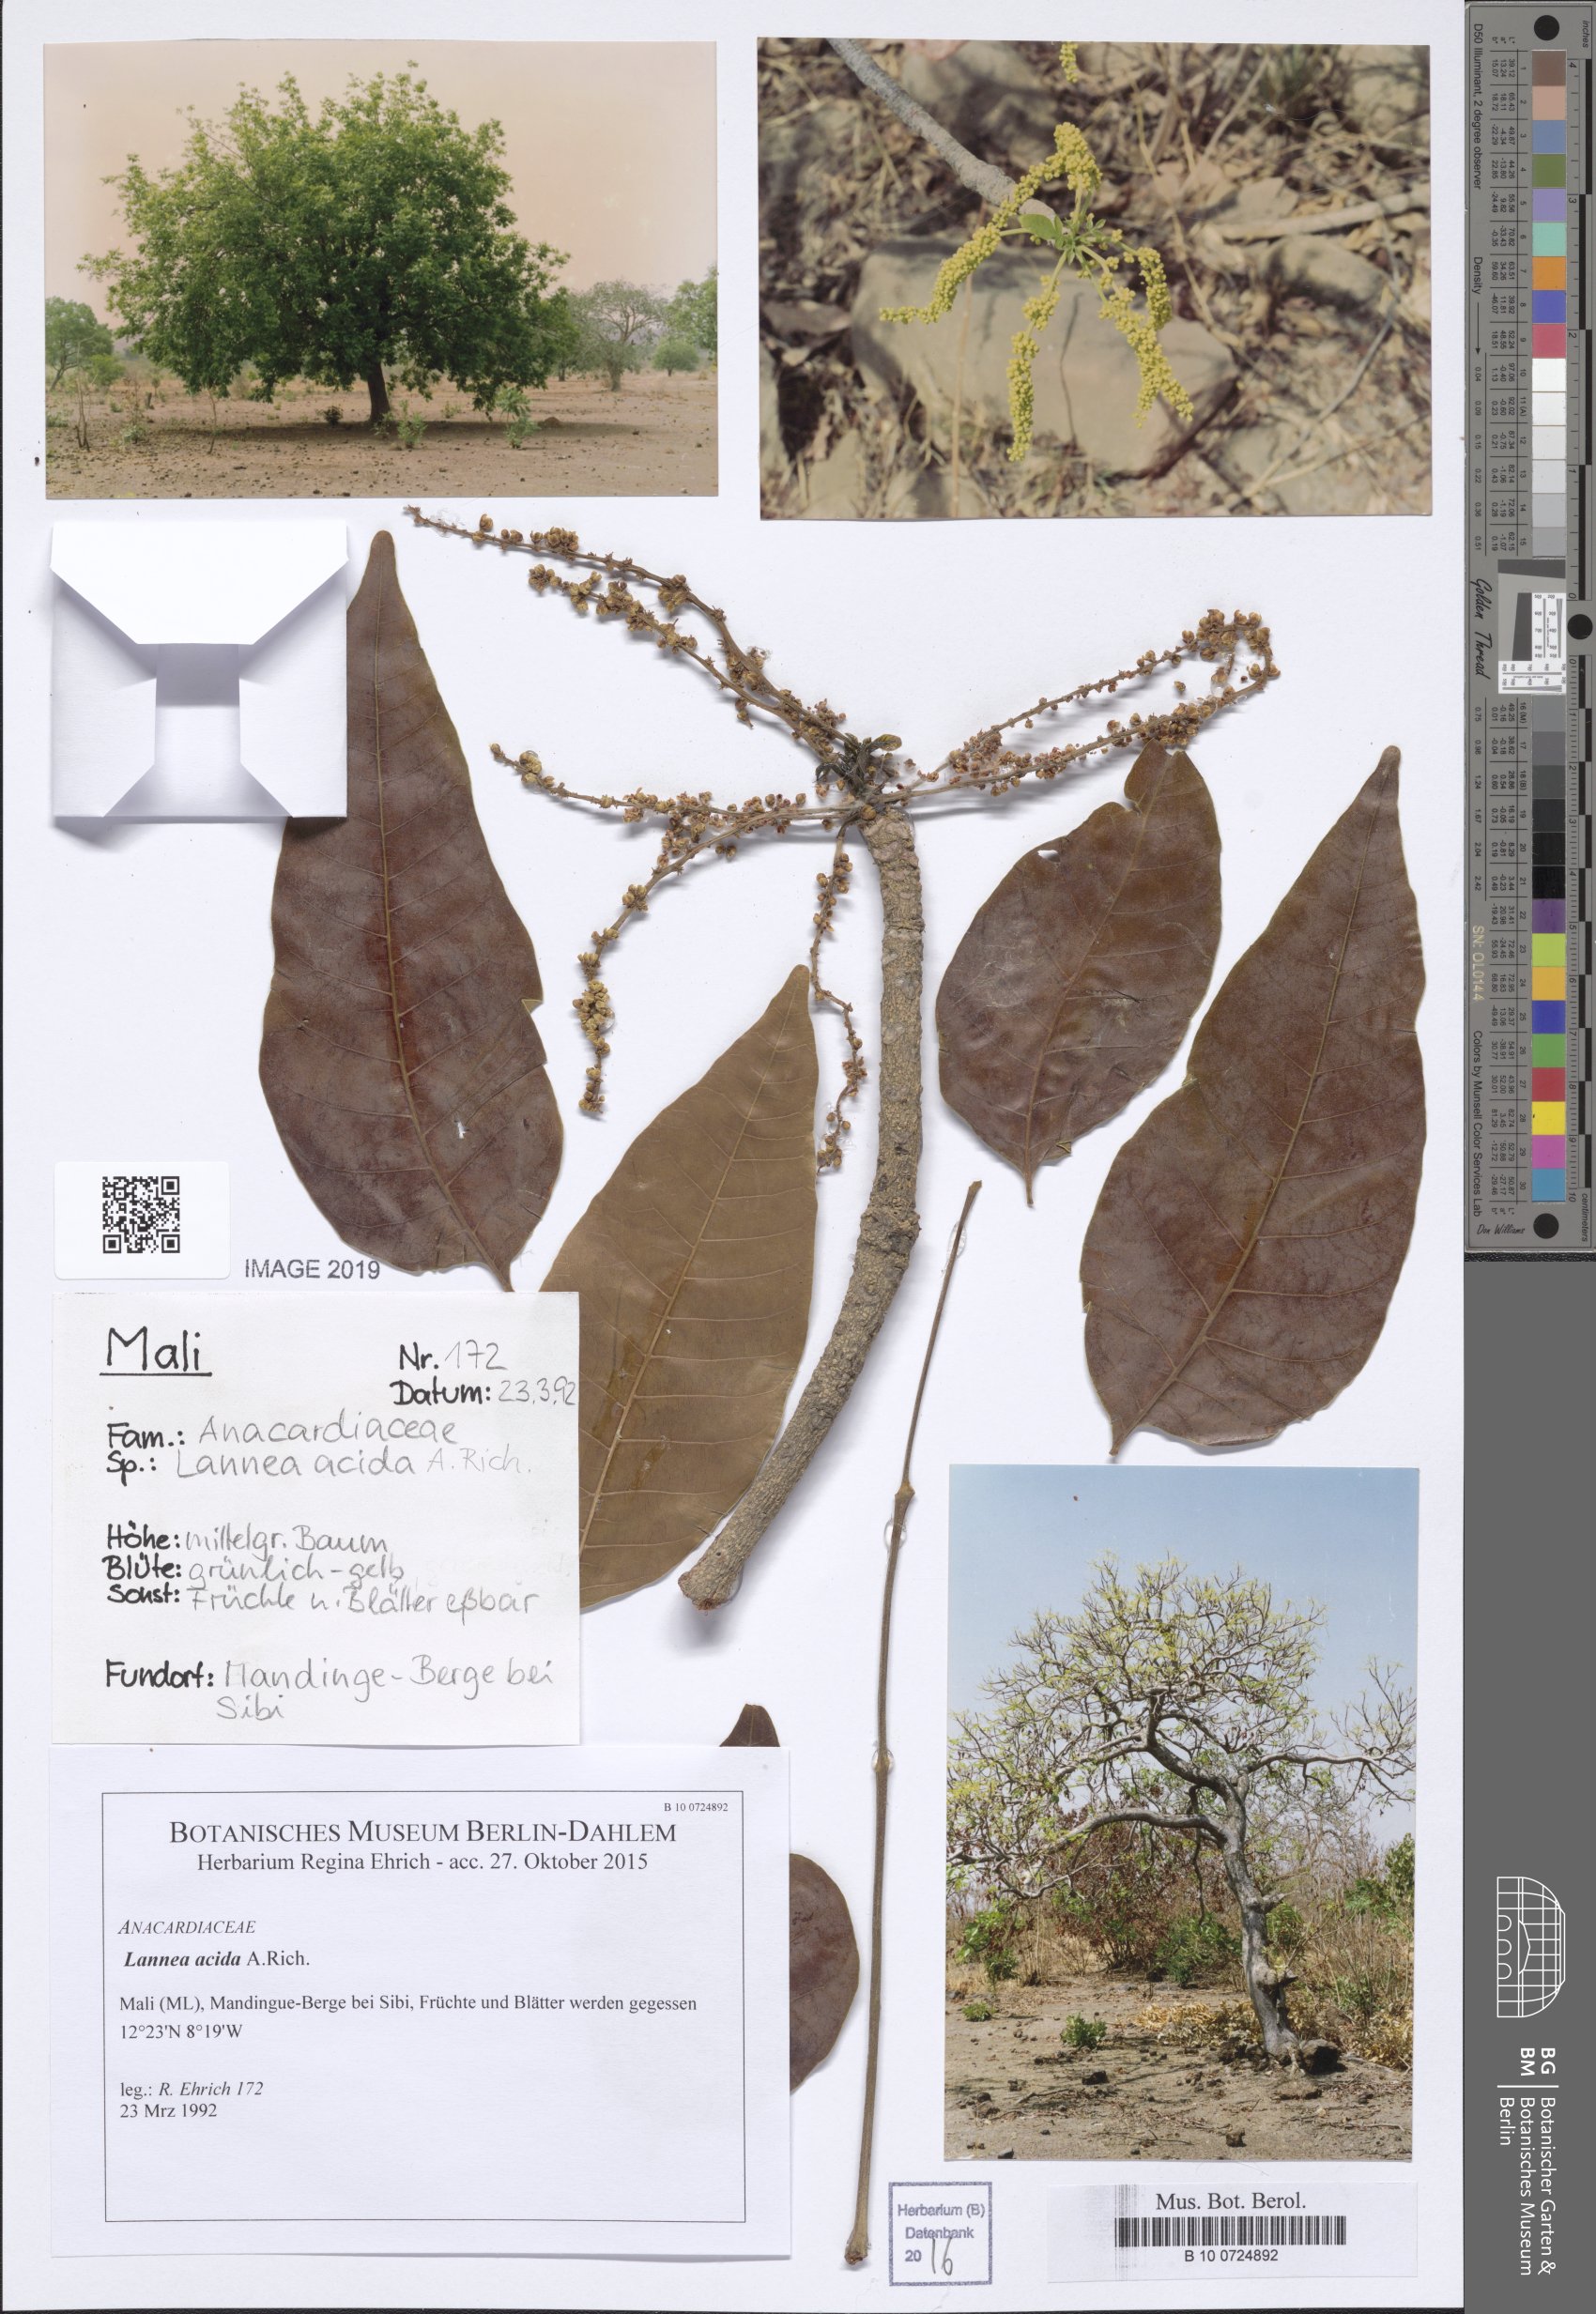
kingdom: Plantae
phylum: Tracheophyta
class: Magnoliopsida
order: Sapindales
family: Anacardiaceae
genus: Lannea
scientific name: Lannea acida
